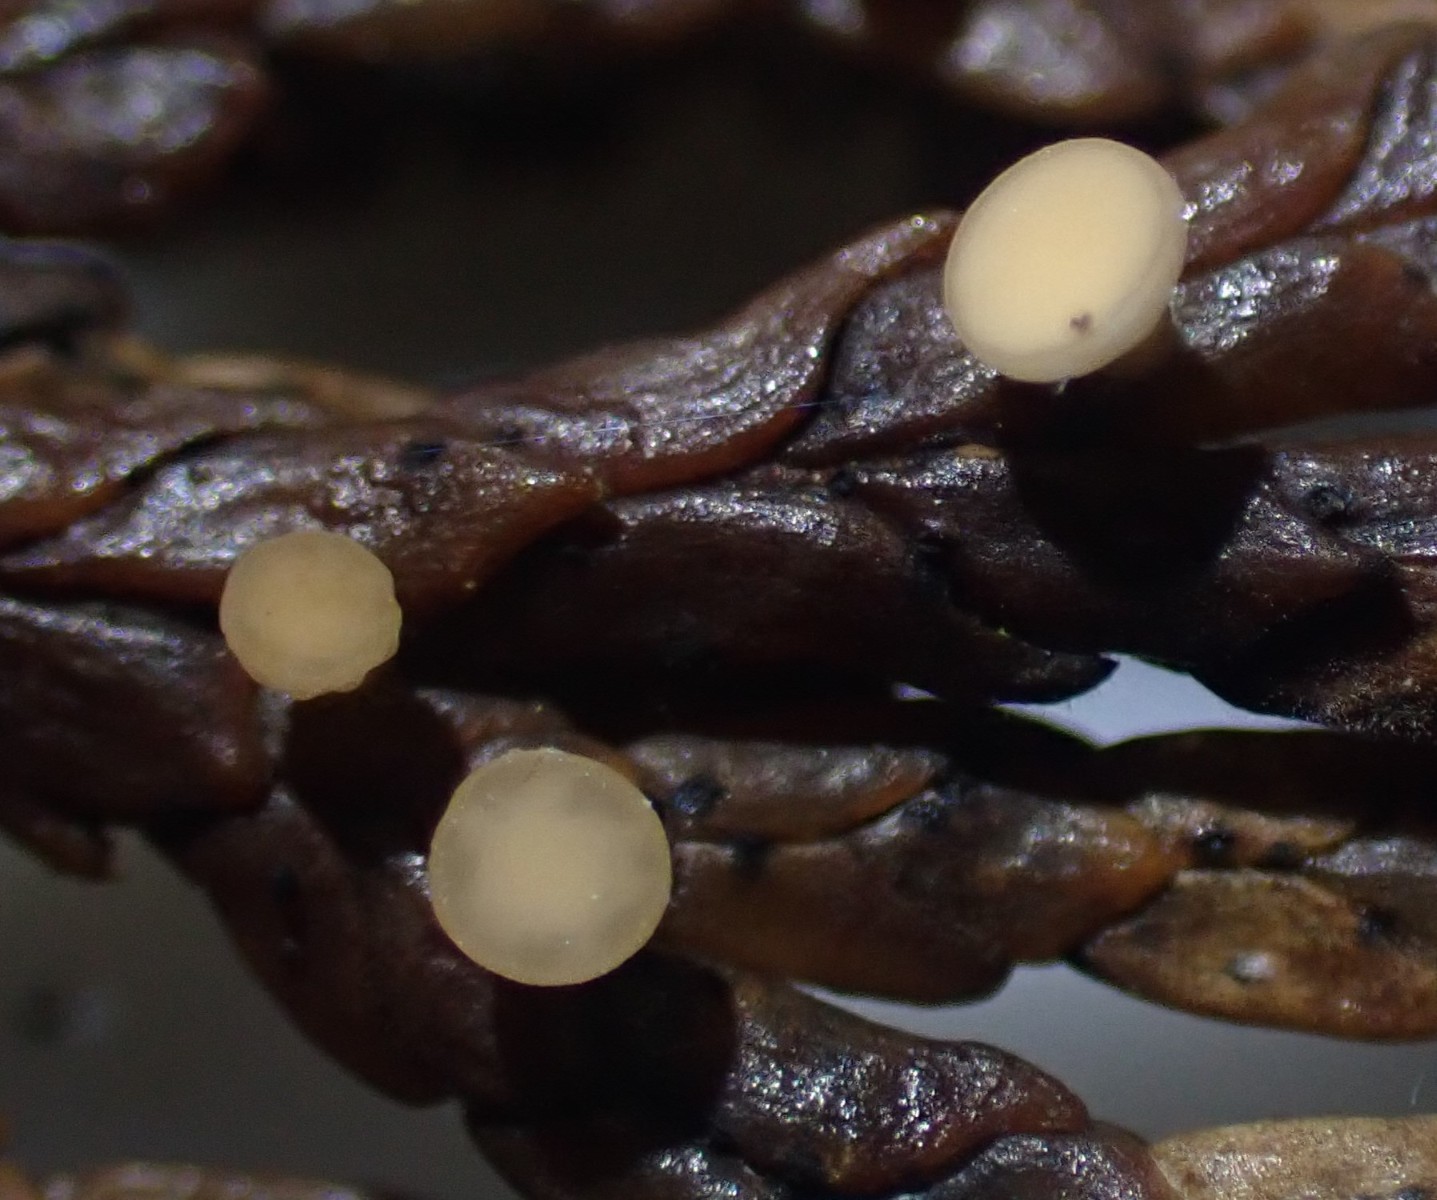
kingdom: Fungi
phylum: Ascomycota
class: Pezizomycetes
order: Pezizales
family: Sarcoscyphaceae
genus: Pithya
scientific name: Pithya cupressina
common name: lille dukatbæger
